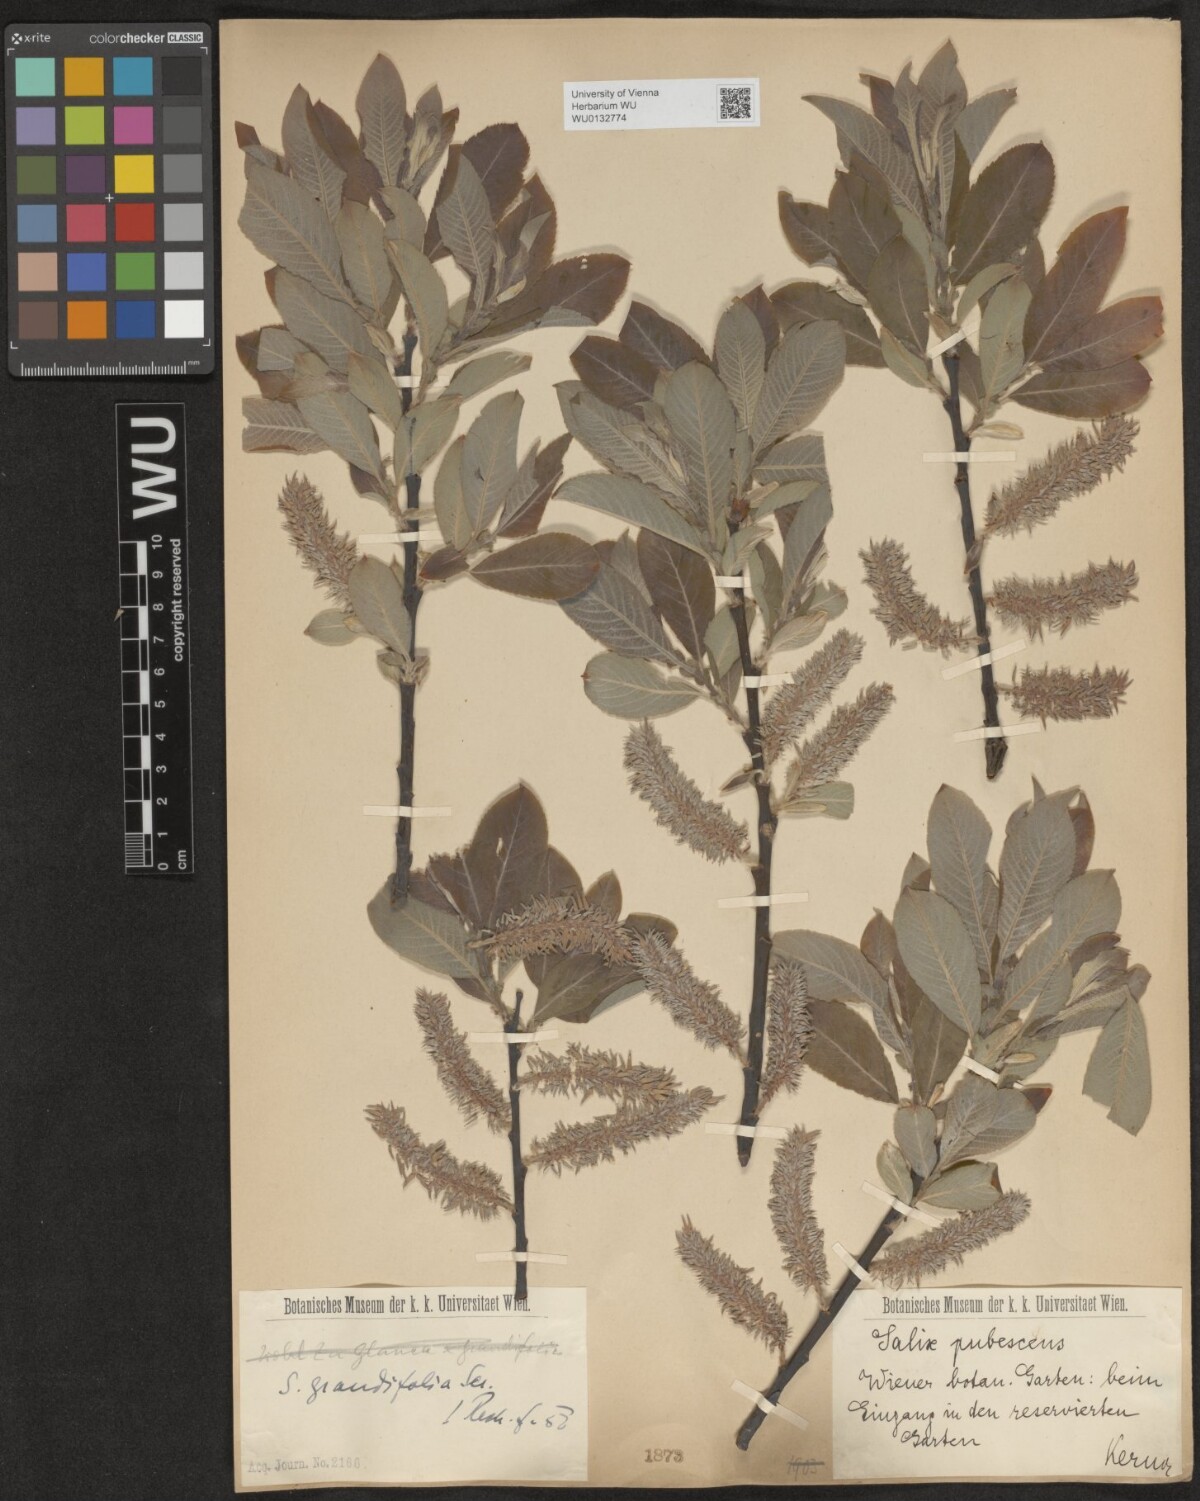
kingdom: Plantae
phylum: Tracheophyta
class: Magnoliopsida
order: Malpighiales
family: Salicaceae
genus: Salix
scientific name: Salix appendiculata
